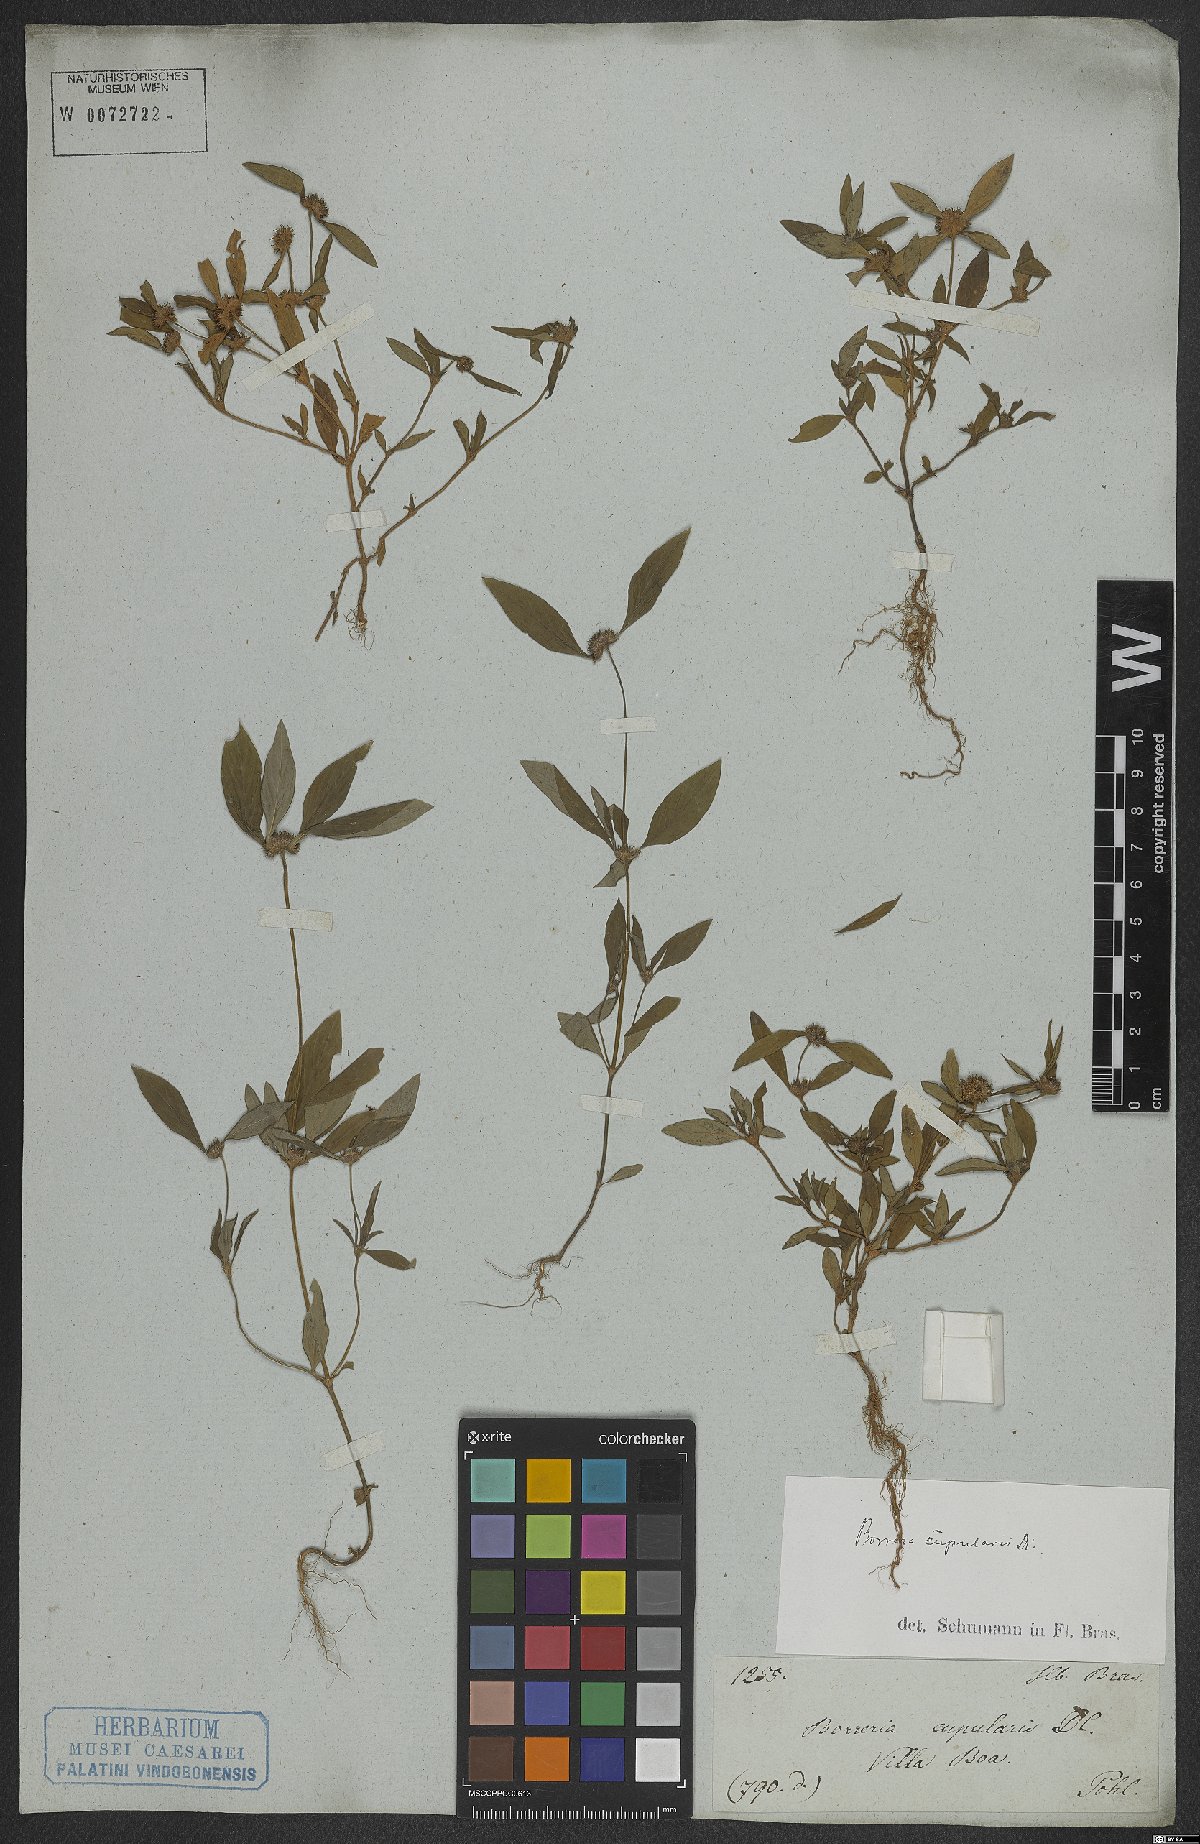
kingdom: Plantae
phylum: Tracheophyta
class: Magnoliopsida
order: Gentianales
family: Rubiaceae
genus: Spermacoce
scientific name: Spermacoce cupularis
